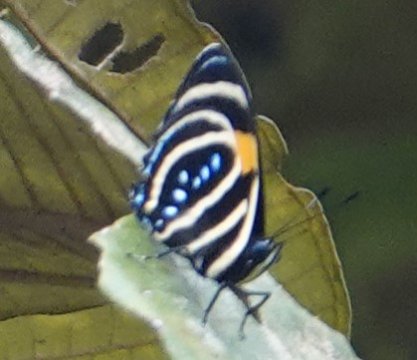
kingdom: Animalia
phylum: Arthropoda
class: Insecta
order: Lepidoptera
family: Nymphalidae
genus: Catagramma
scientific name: Catagramma Callicore lyca
